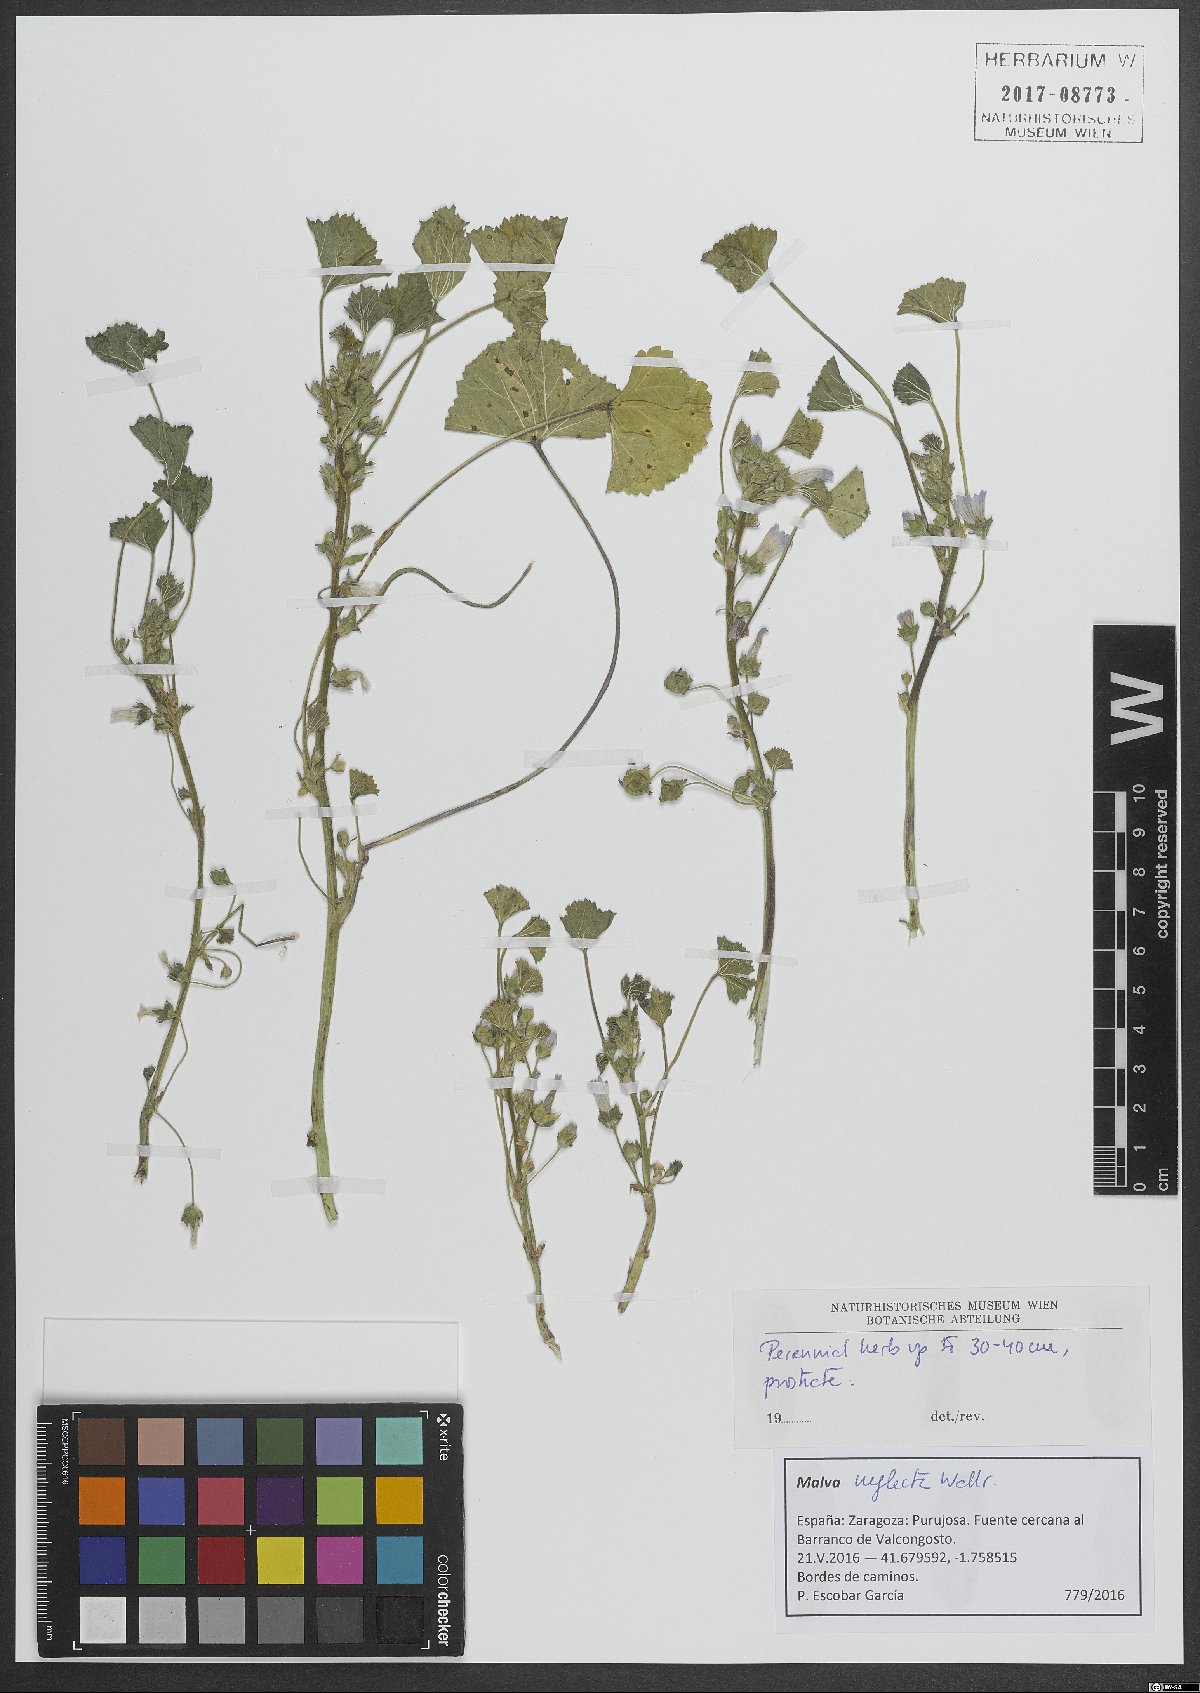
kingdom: Plantae
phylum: Tracheophyta
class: Magnoliopsida
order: Malvales
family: Malvaceae
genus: Malva
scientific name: Malva neglecta
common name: Common mallow
